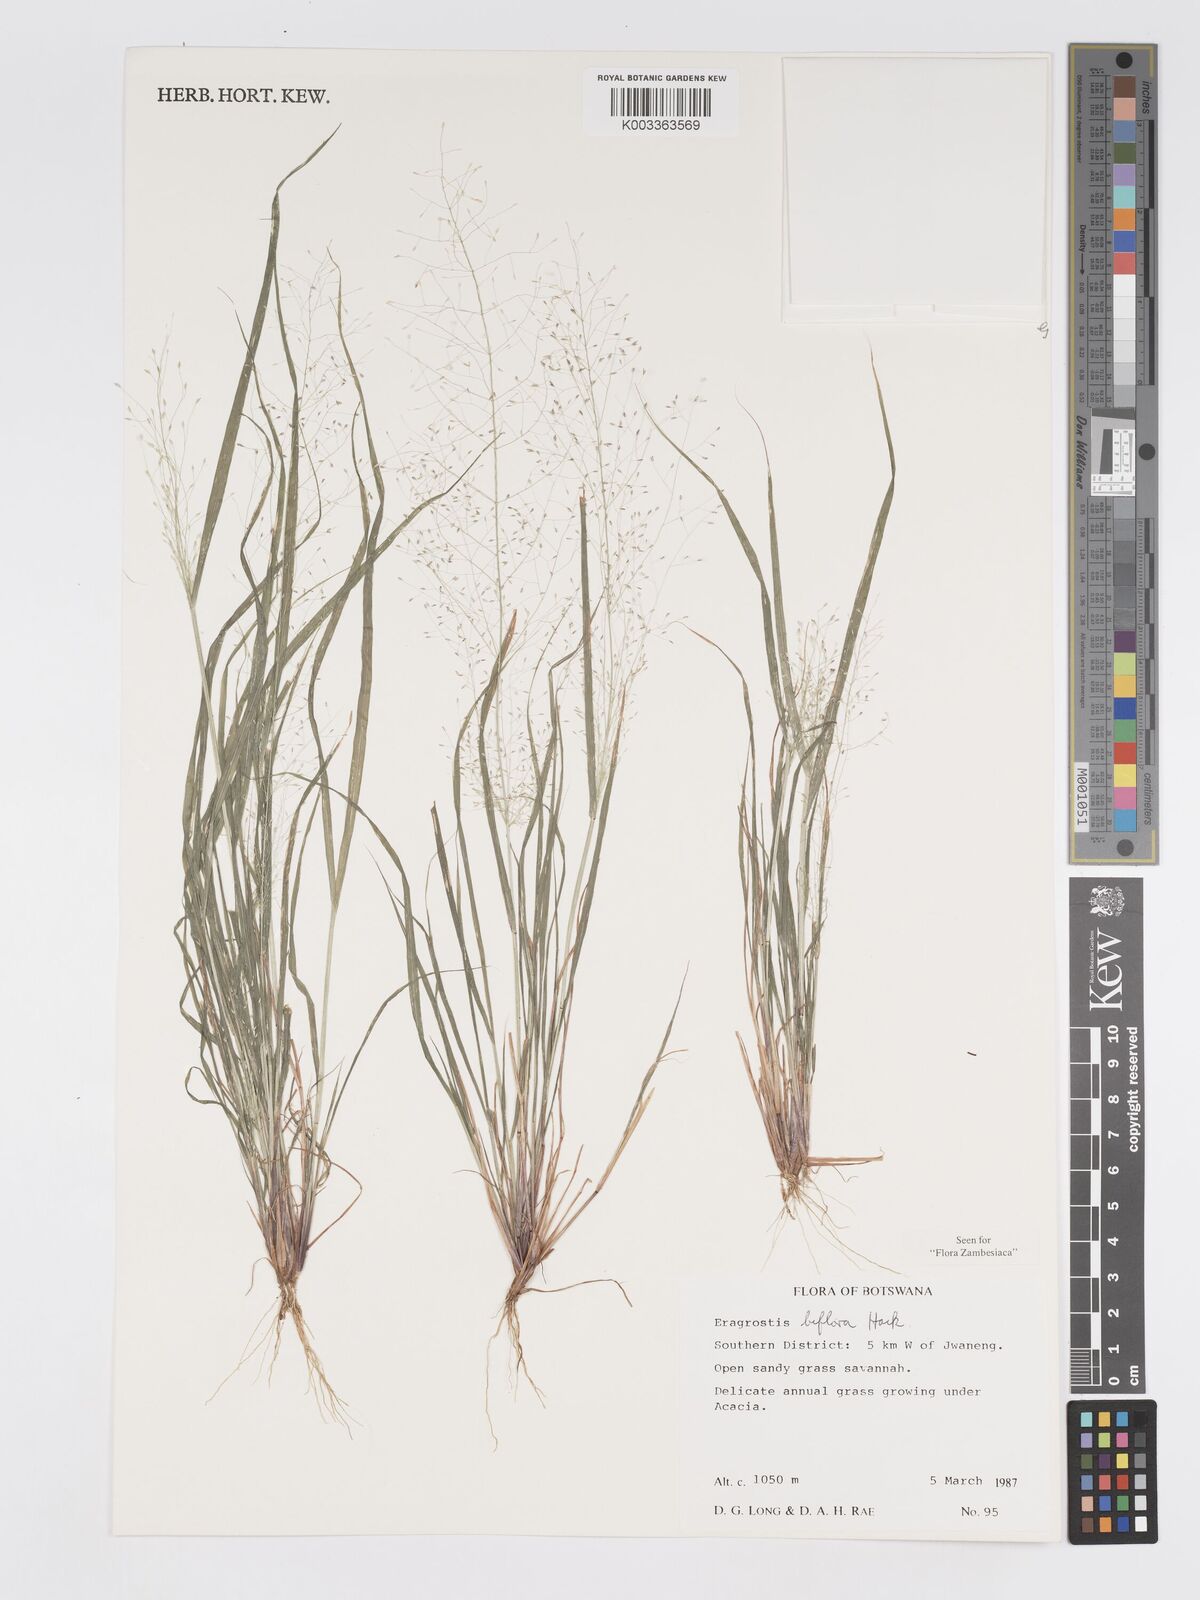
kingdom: Plantae
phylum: Tracheophyta
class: Liliopsida
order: Poales
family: Poaceae
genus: Eragrostis
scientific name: Eragrostis biflora
